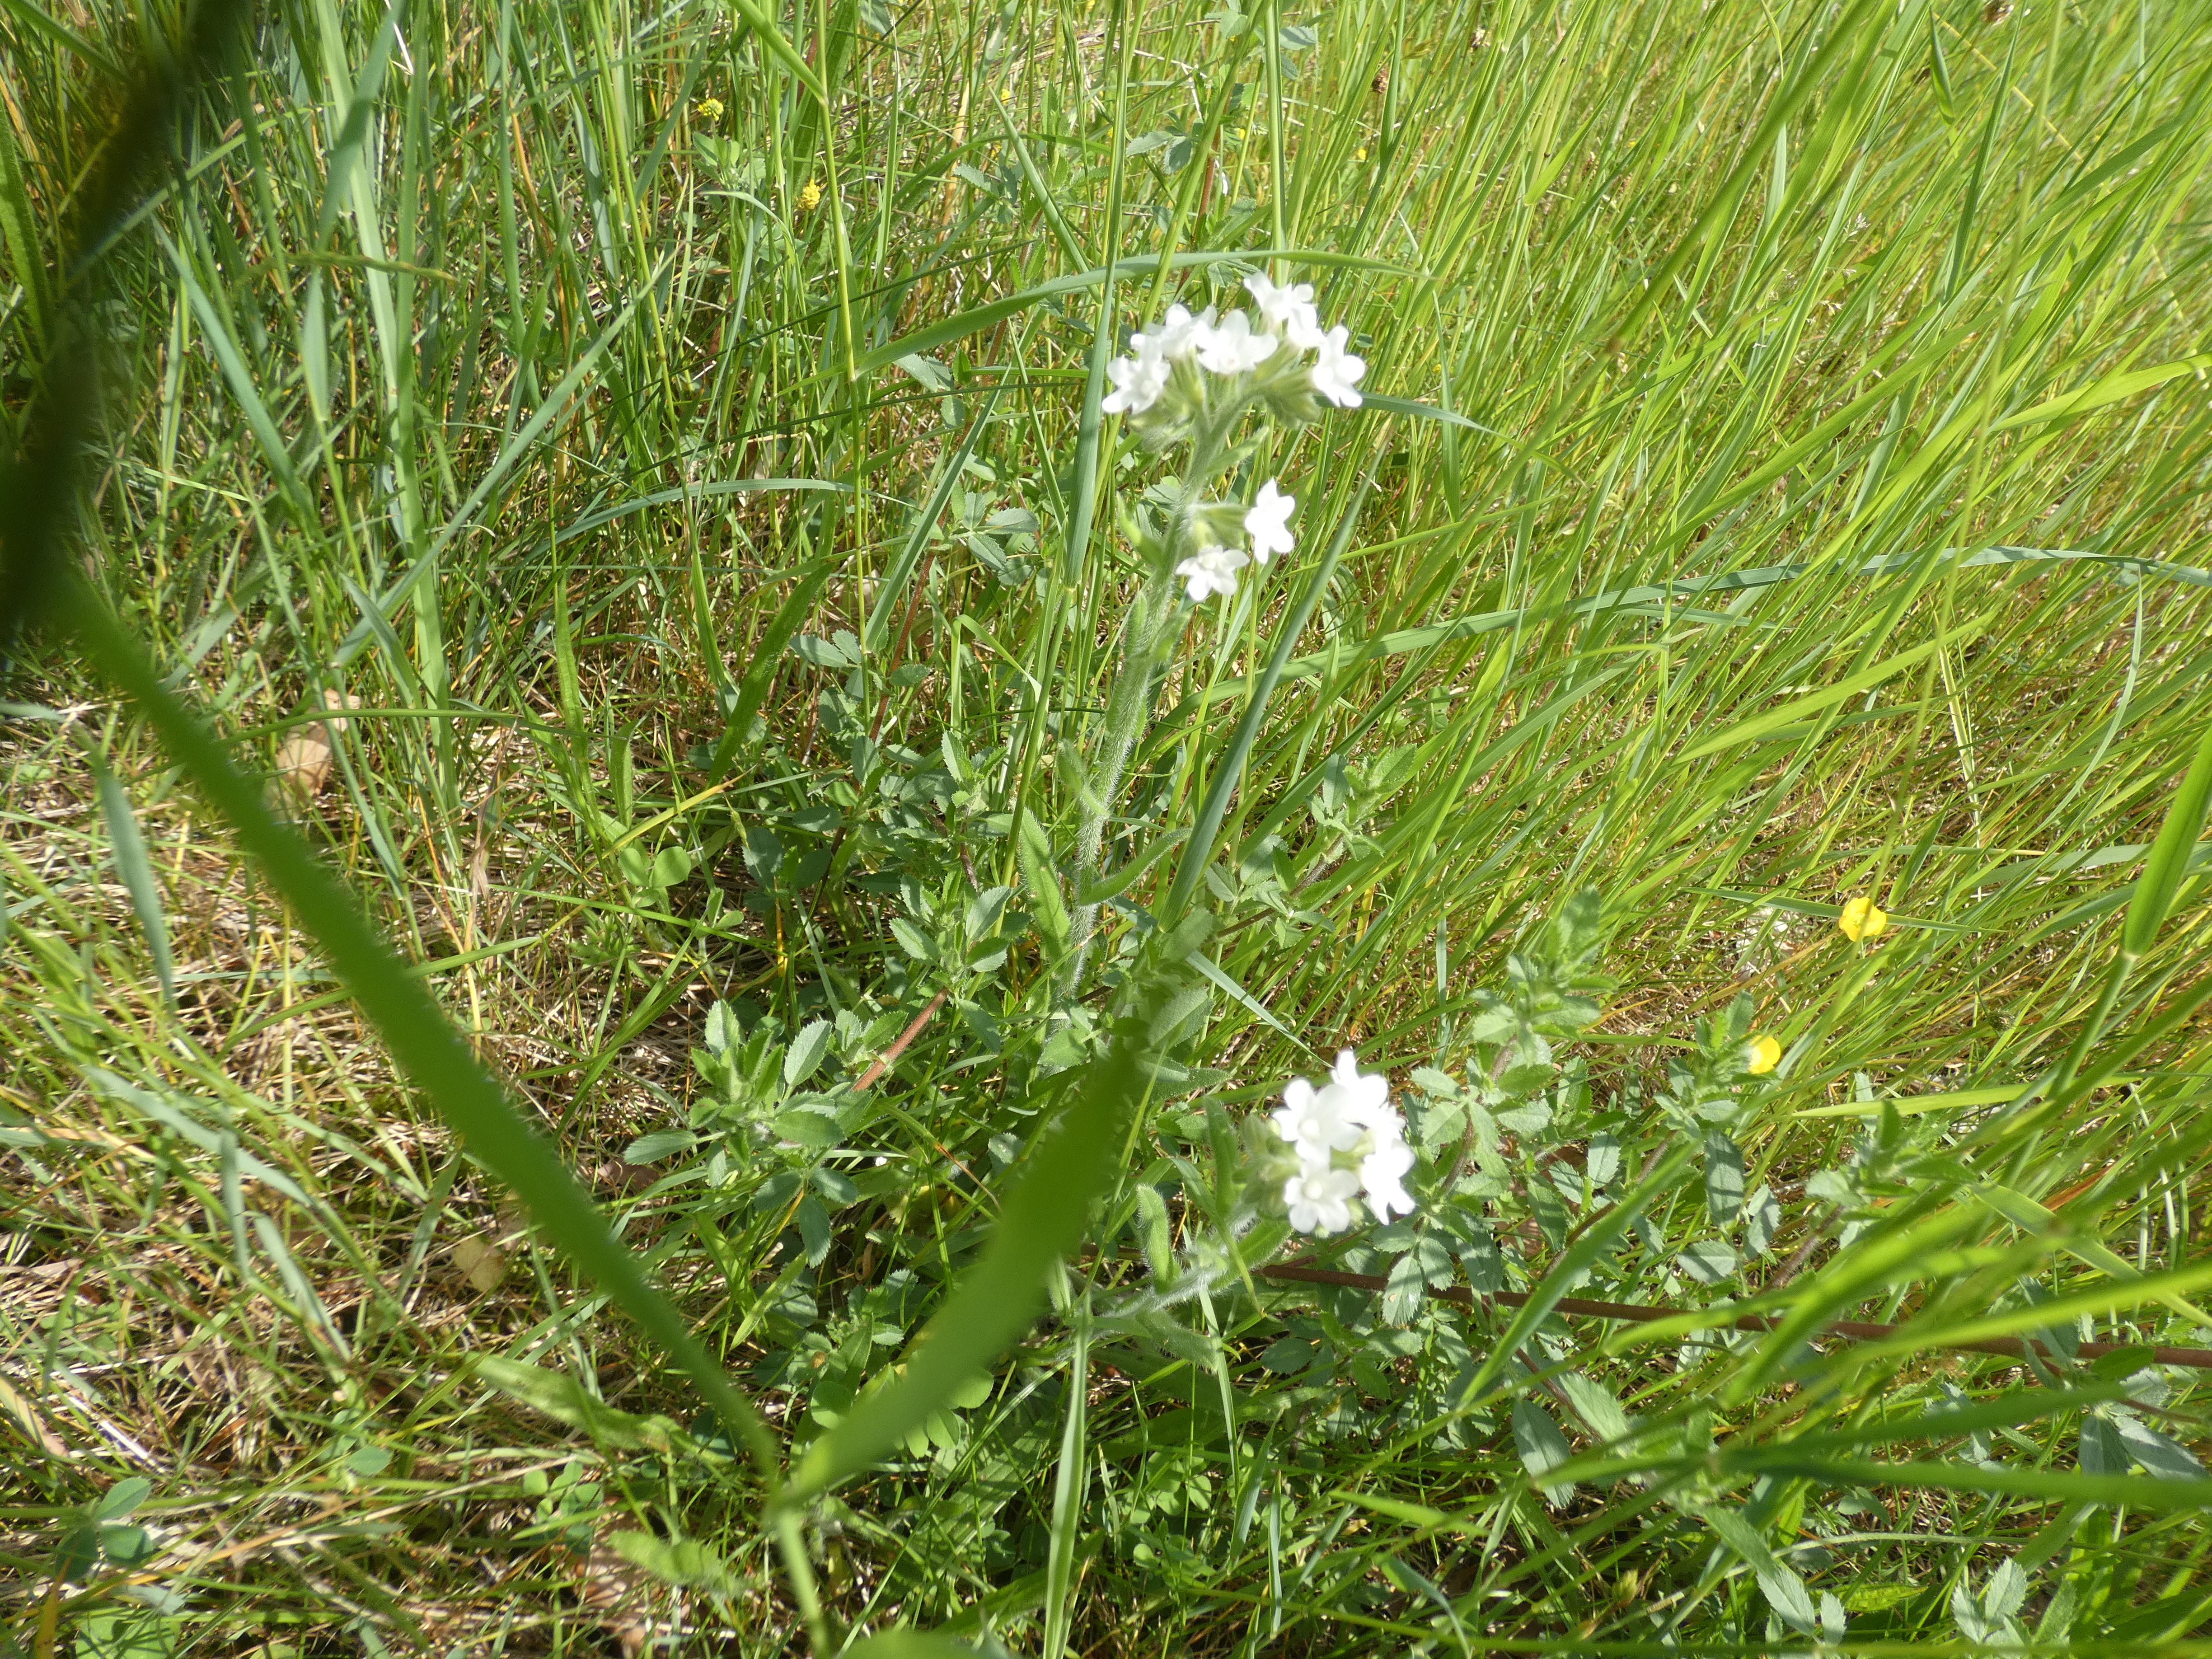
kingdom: Plantae
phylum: Tracheophyta
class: Magnoliopsida
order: Boraginales
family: Boraginaceae
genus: Buglossoides
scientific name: Buglossoides arvensis
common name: Rynket stenfrø
